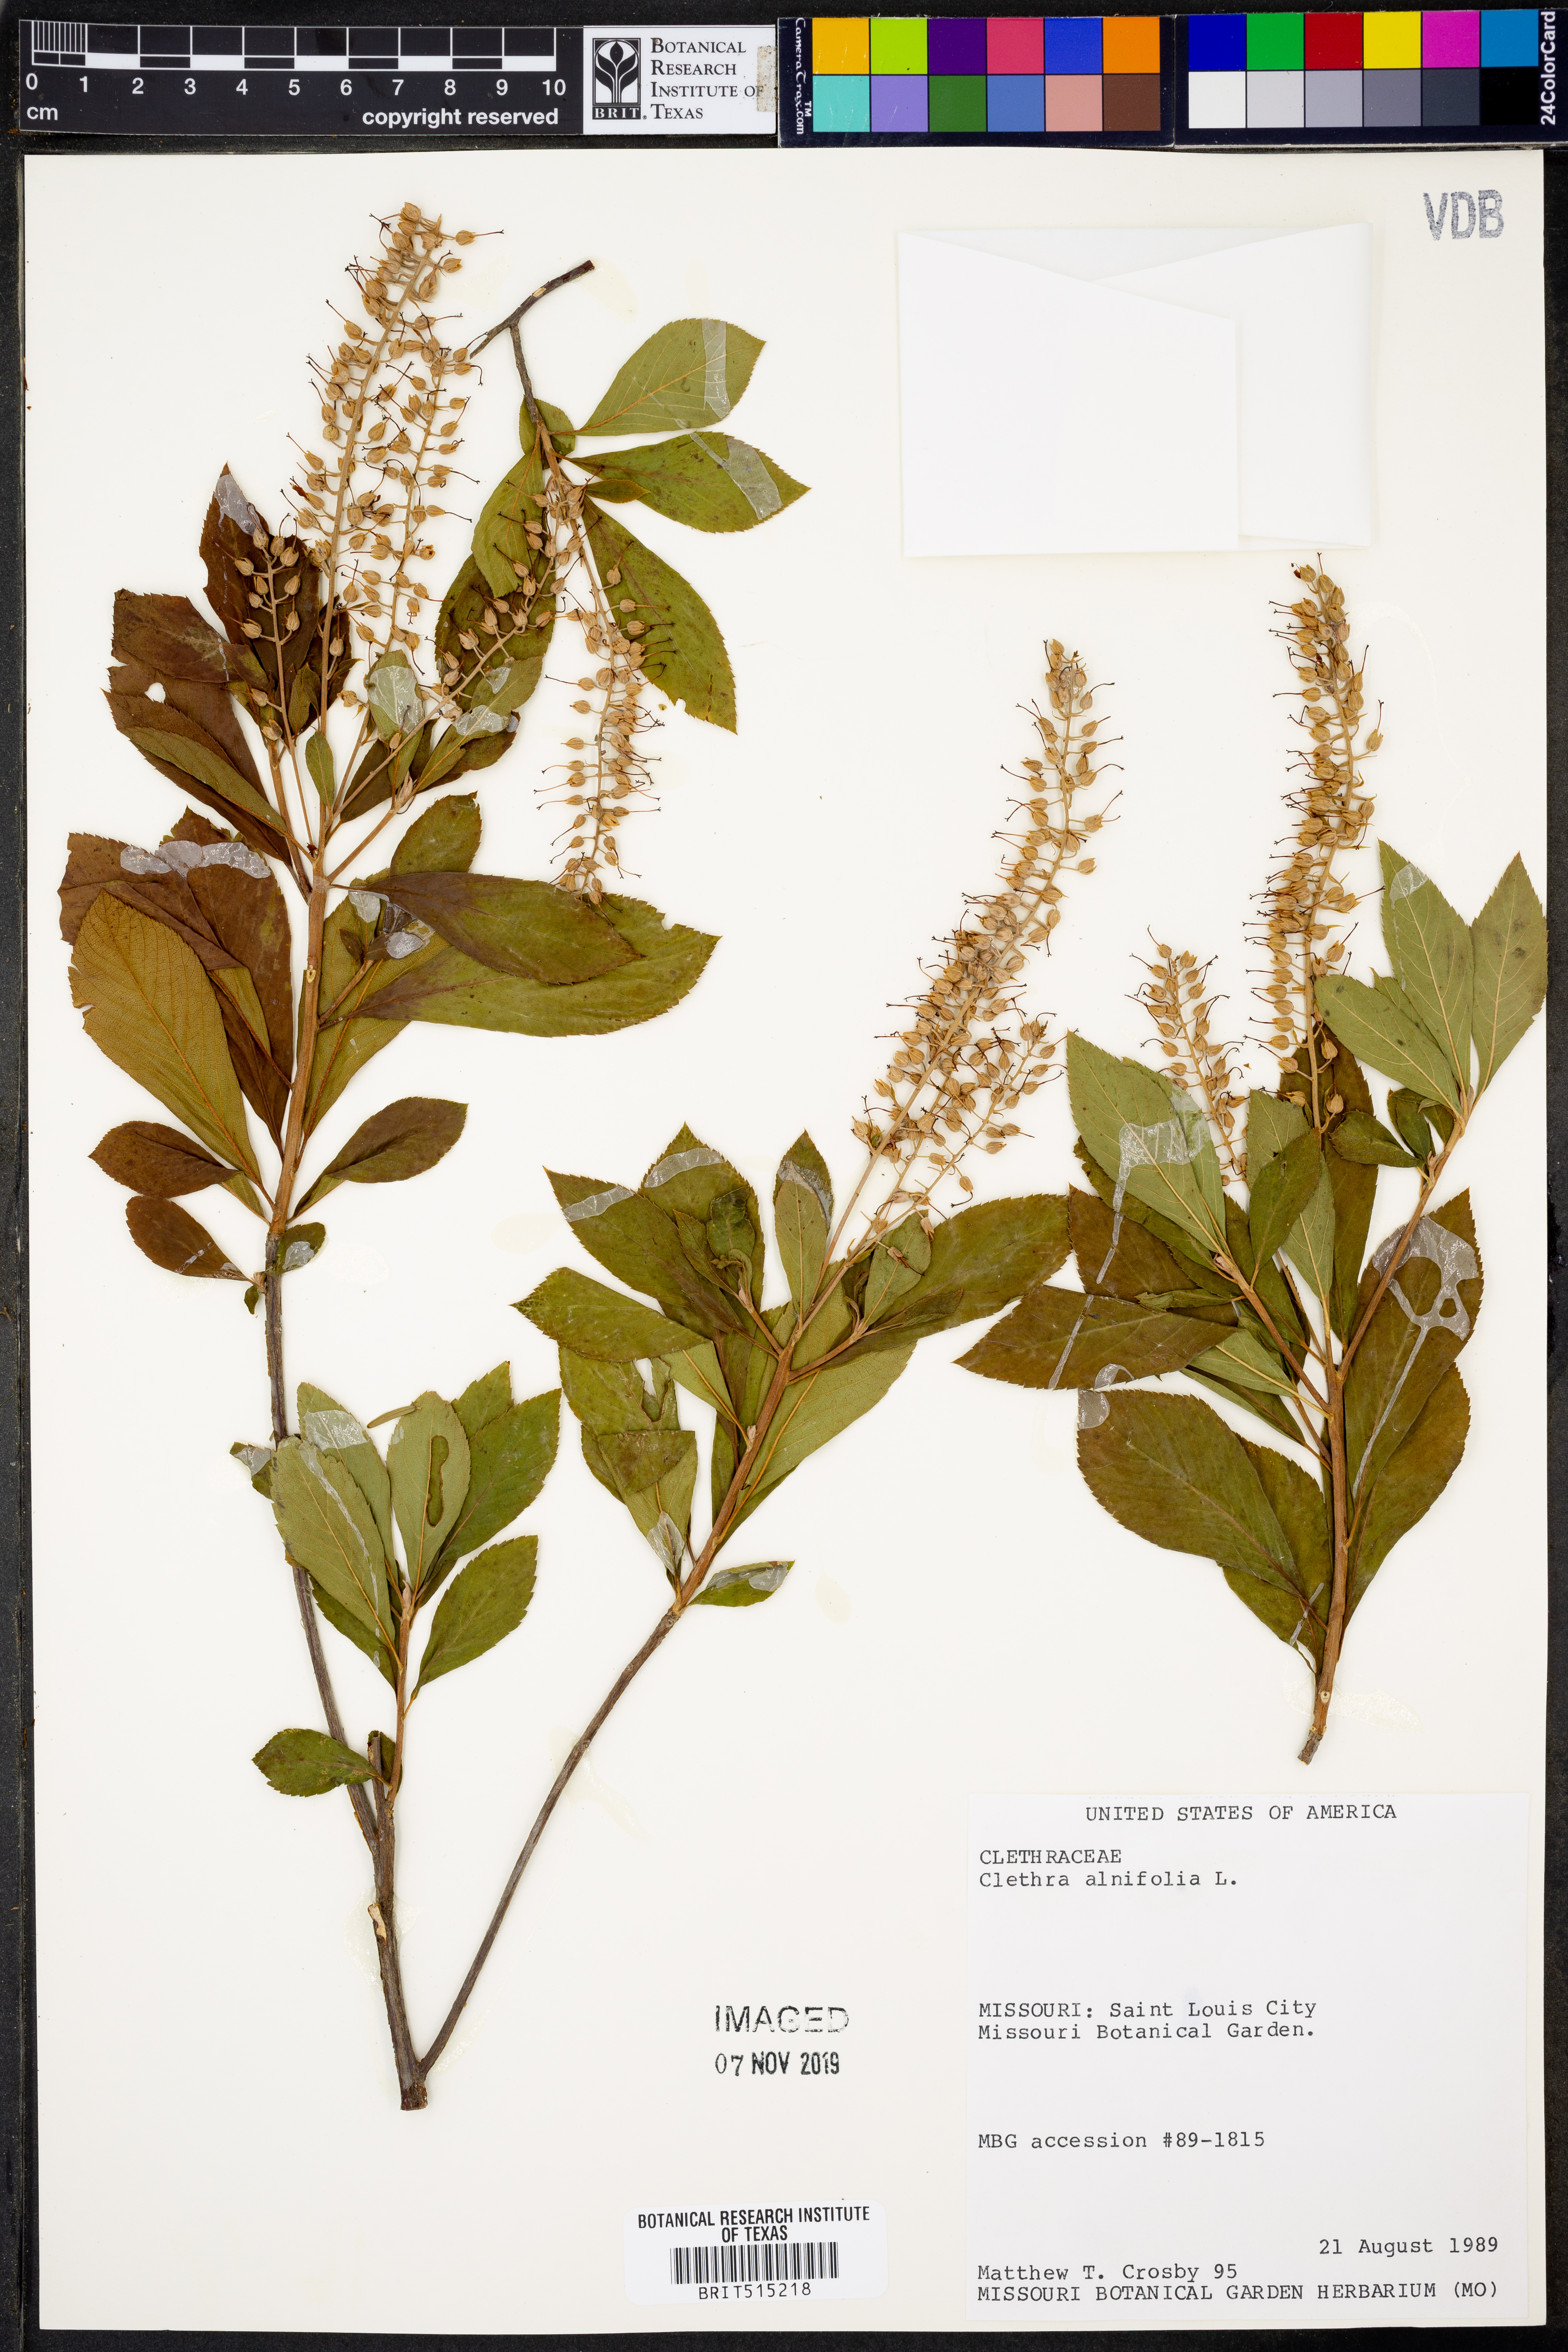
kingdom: Plantae
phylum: Tracheophyta
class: Magnoliopsida
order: Ericales
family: Clethraceae
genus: Clethra
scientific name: Clethra alnifolia
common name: Sweet pepperbush
